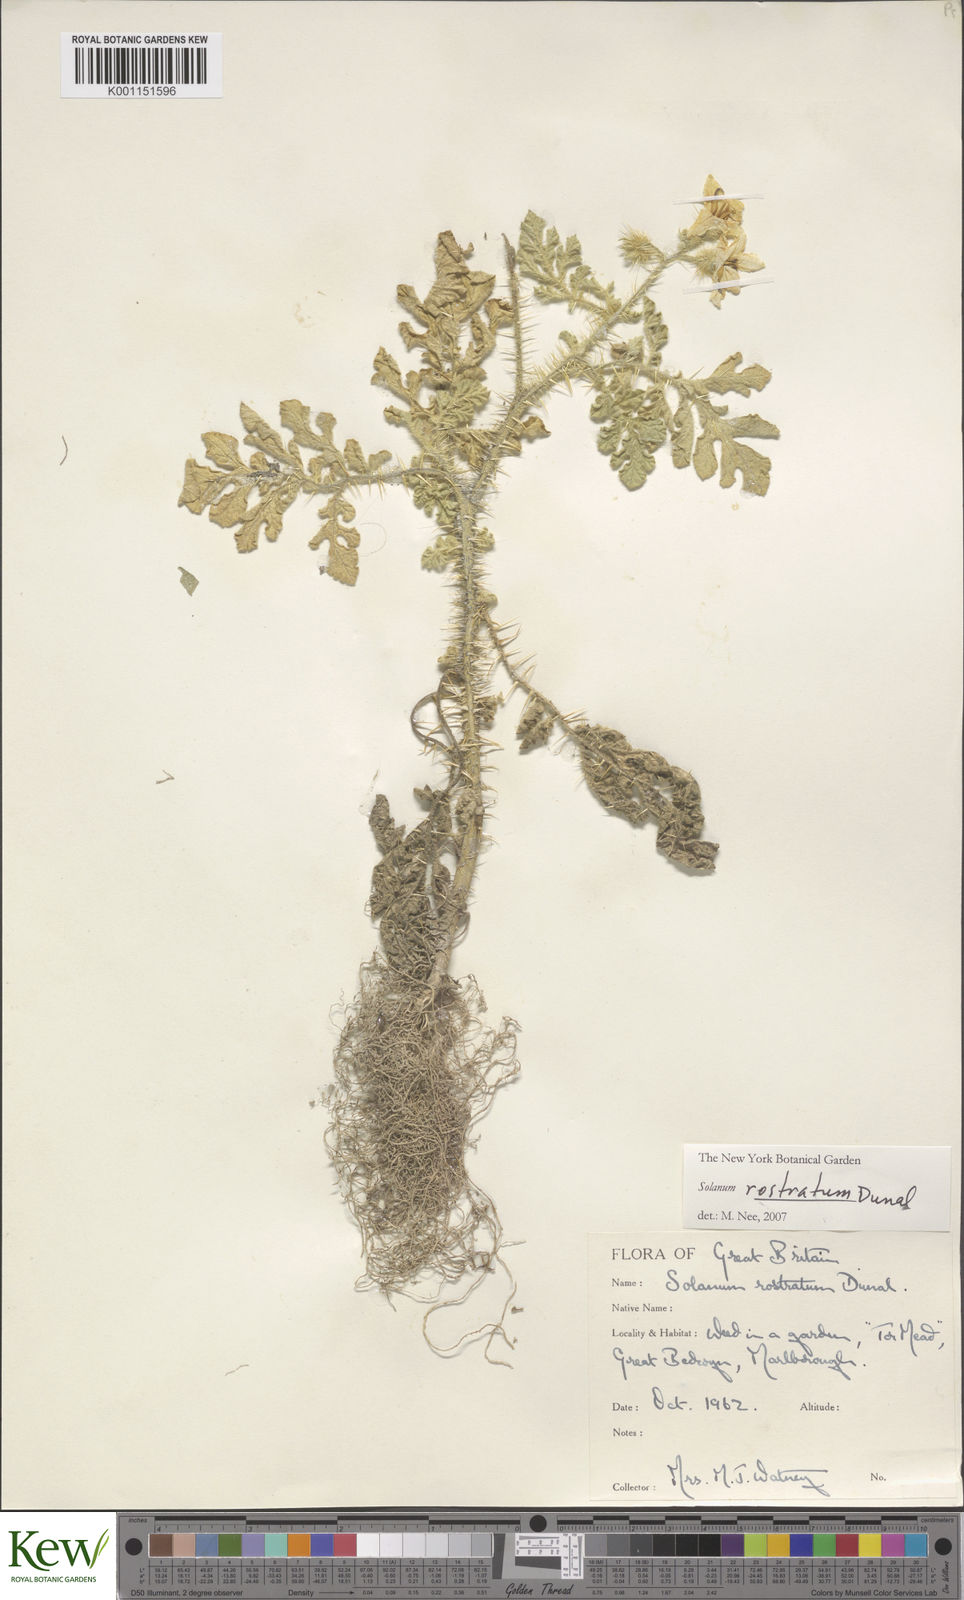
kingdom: Plantae
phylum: Tracheophyta
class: Magnoliopsida
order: Solanales
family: Solanaceae
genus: Solanum
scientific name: Solanum angustifolium
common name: Buffalobur nightshade
